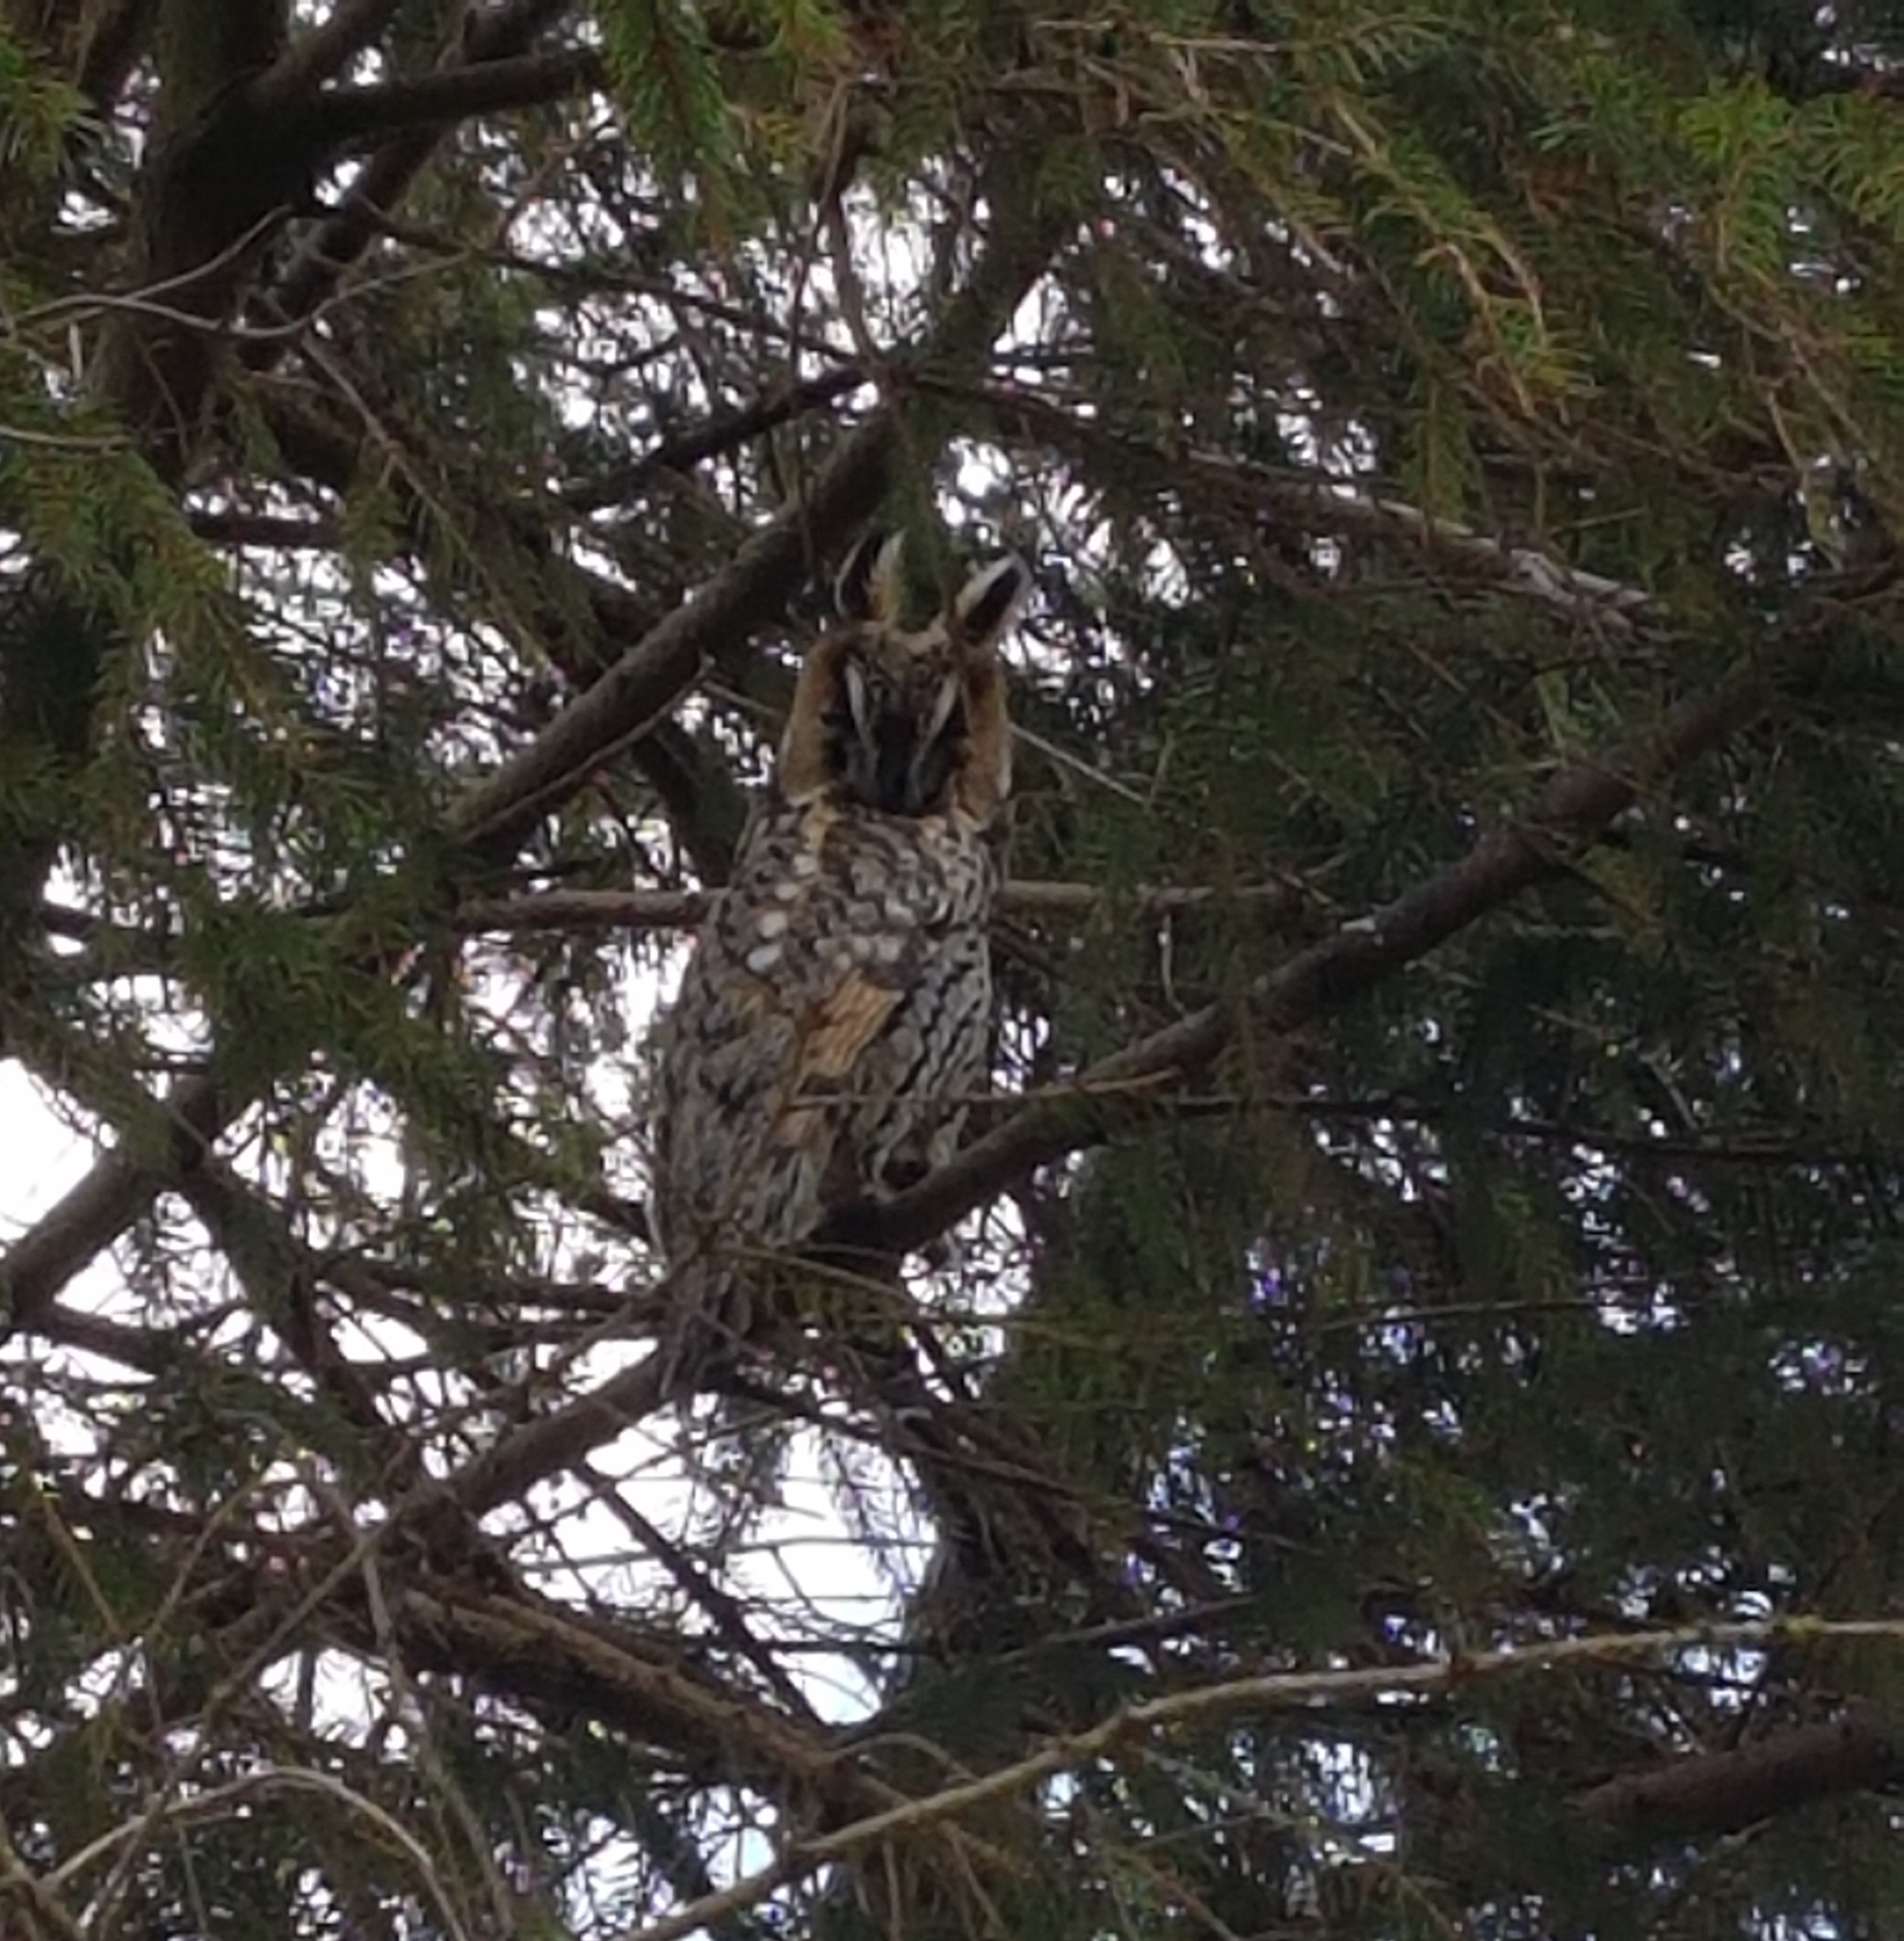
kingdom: Animalia
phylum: Chordata
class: Aves
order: Strigiformes
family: Strigidae
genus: Asio
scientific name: Asio otus
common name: Skovhornugle
